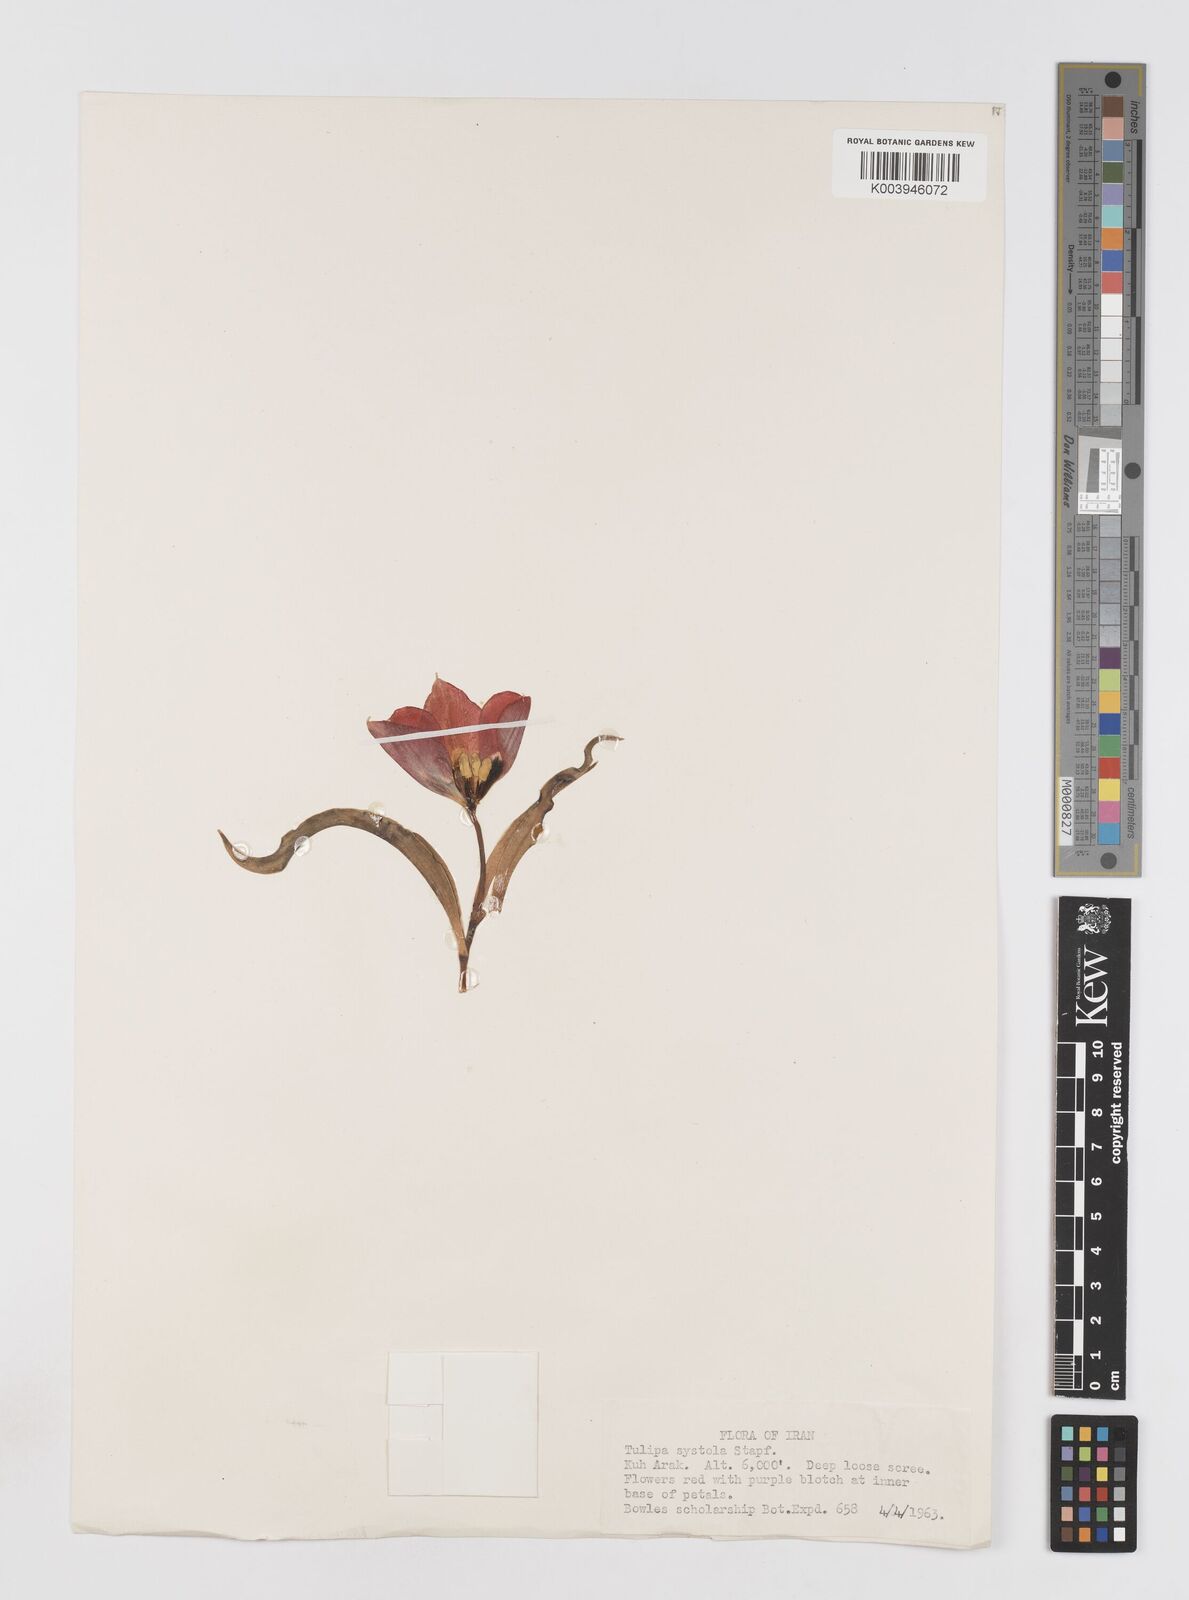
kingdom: Plantae
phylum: Tracheophyta
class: Liliopsida
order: Liliales
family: Liliaceae
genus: Tulipa
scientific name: Tulipa systola
